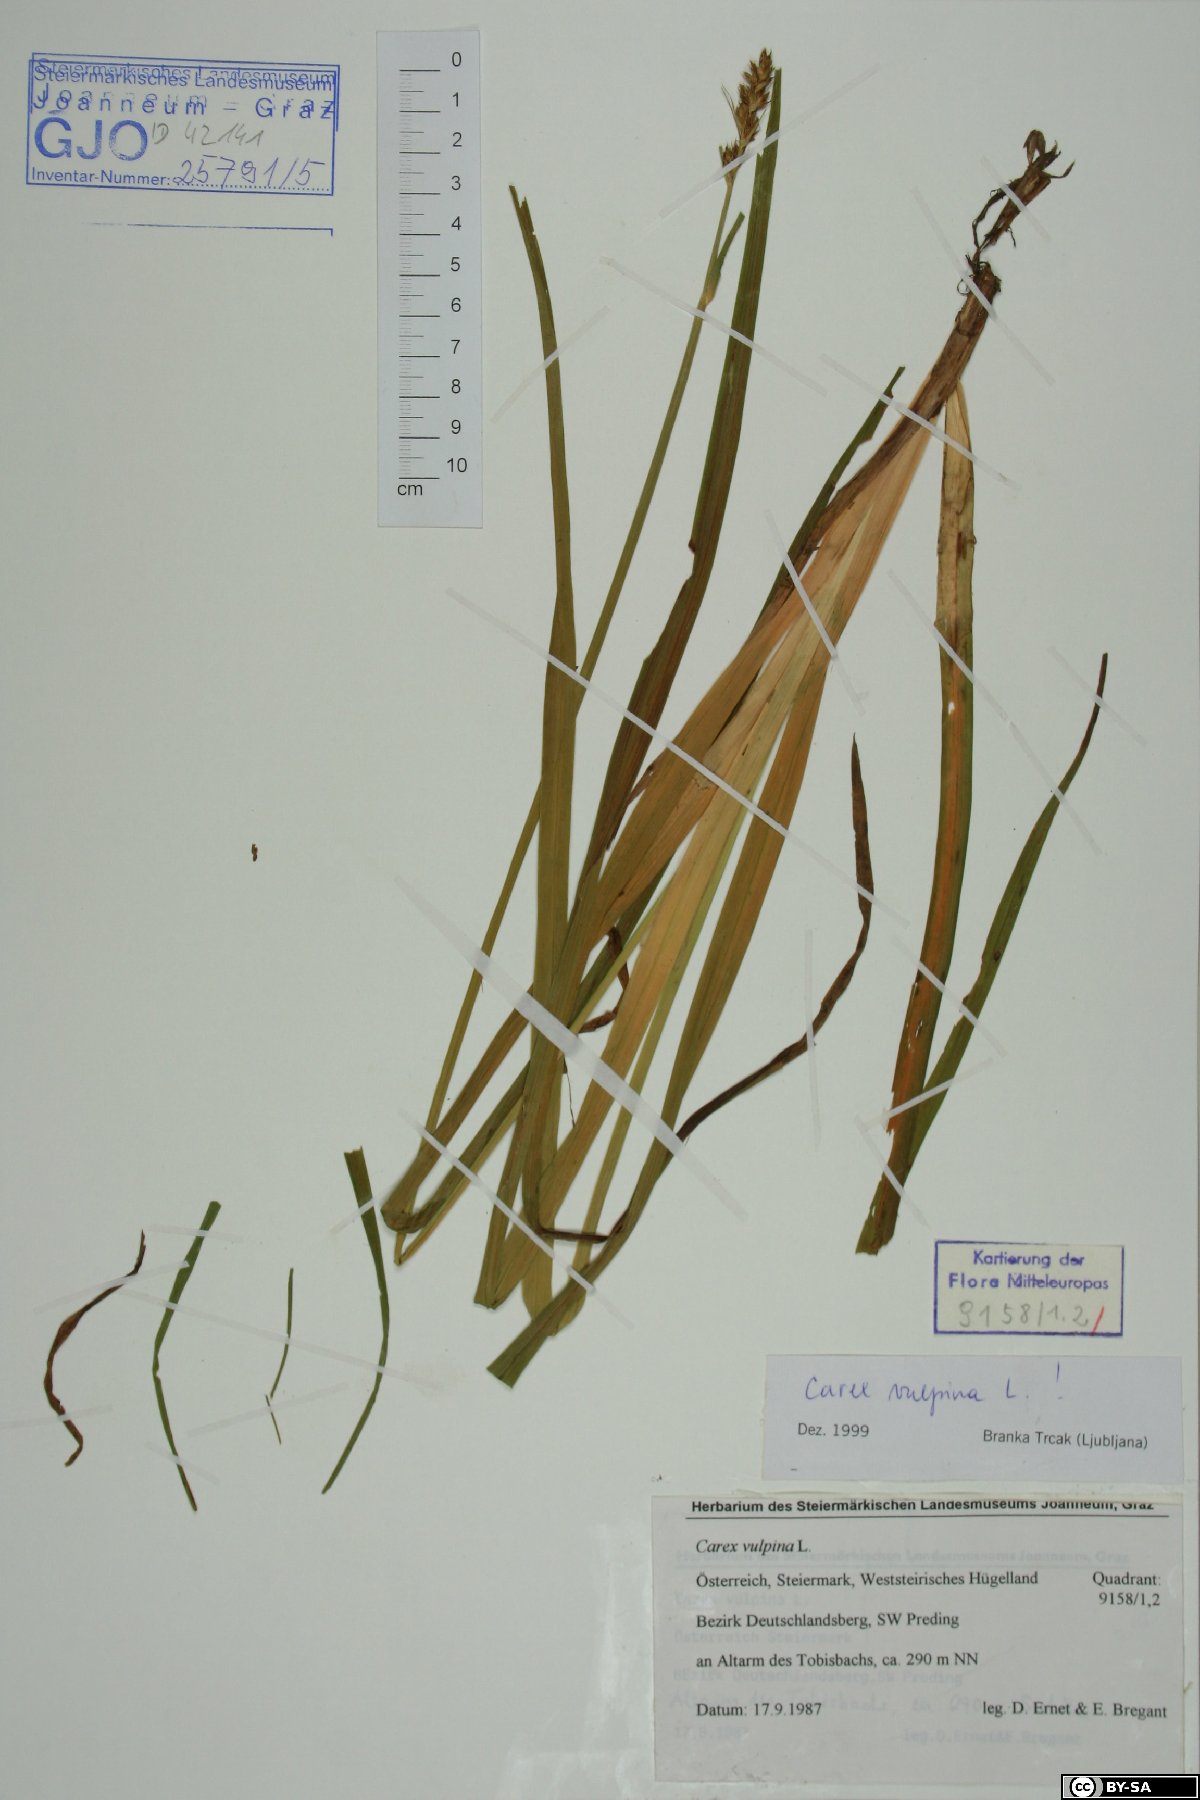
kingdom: Plantae
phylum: Tracheophyta
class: Liliopsida
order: Poales
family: Cyperaceae
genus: Carex
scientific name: Carex vulpina
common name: True fox-sedge
